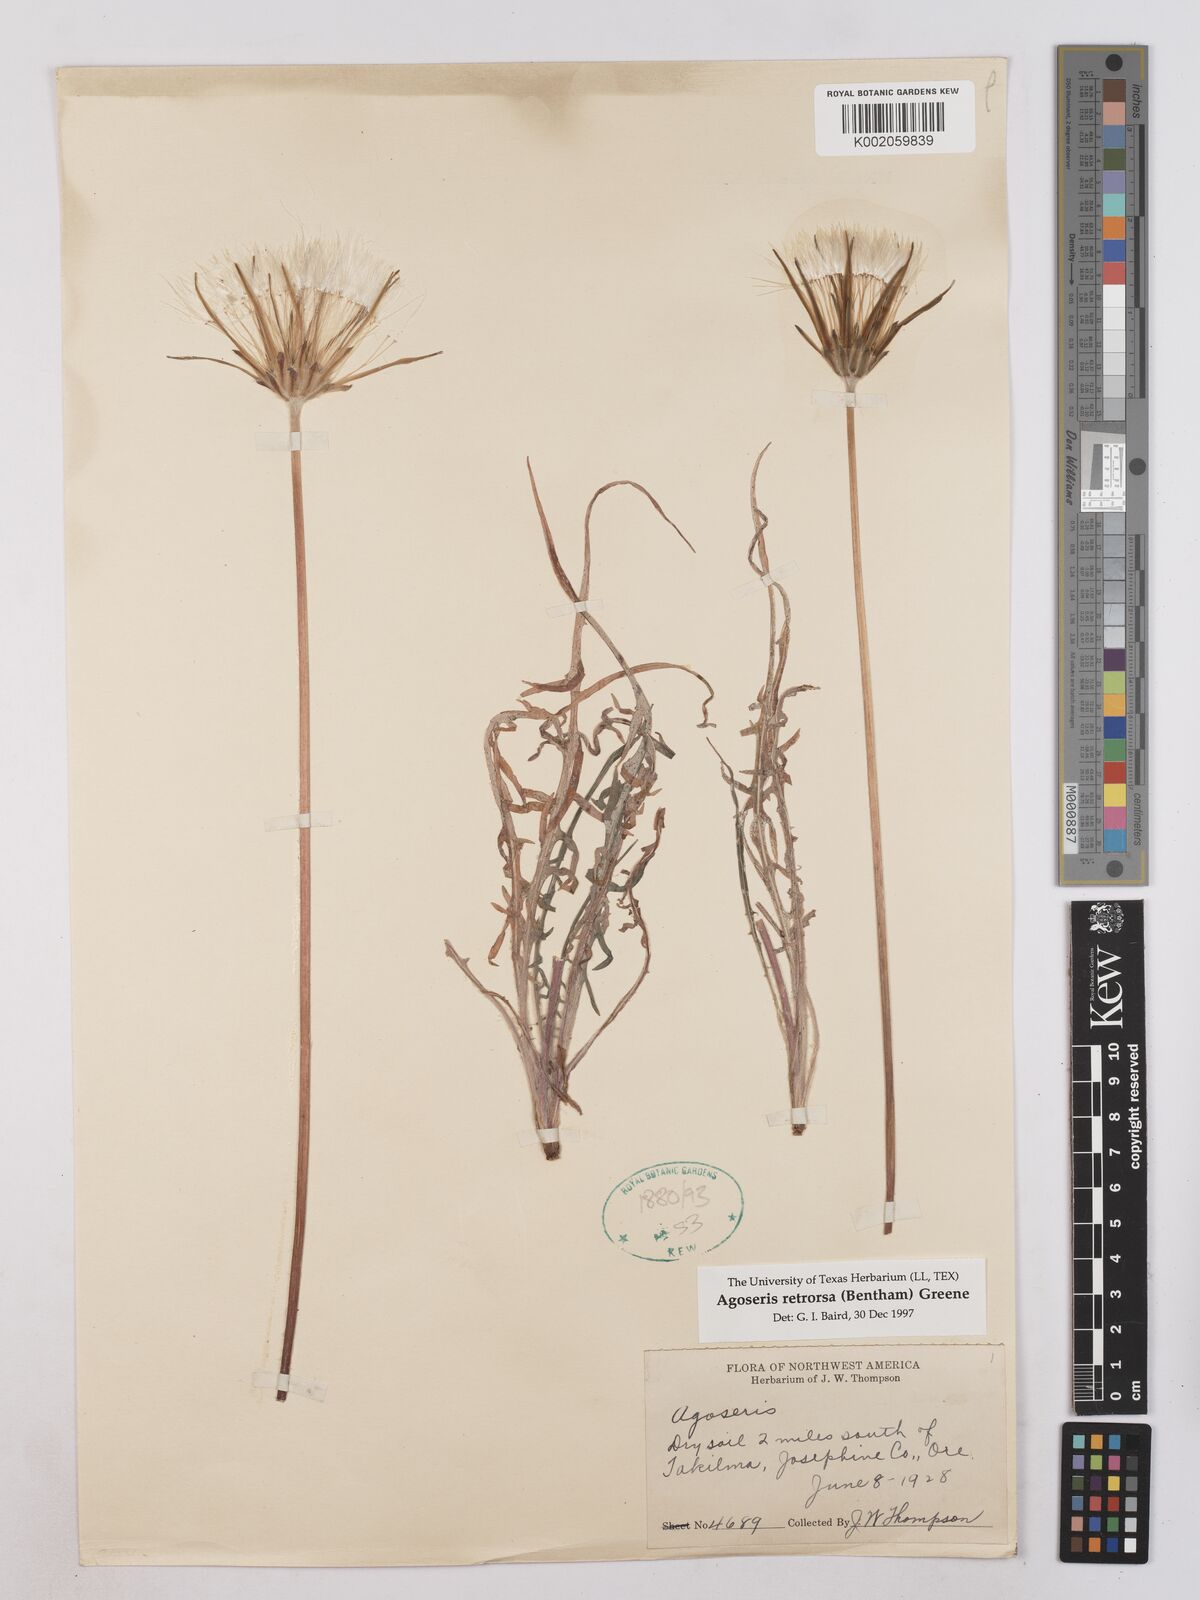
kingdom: Plantae
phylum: Tracheophyta
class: Magnoliopsida
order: Asterales
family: Asteraceae
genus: Agoseris
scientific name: Agoseris retrorsa
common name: Spearleaf agoseris
